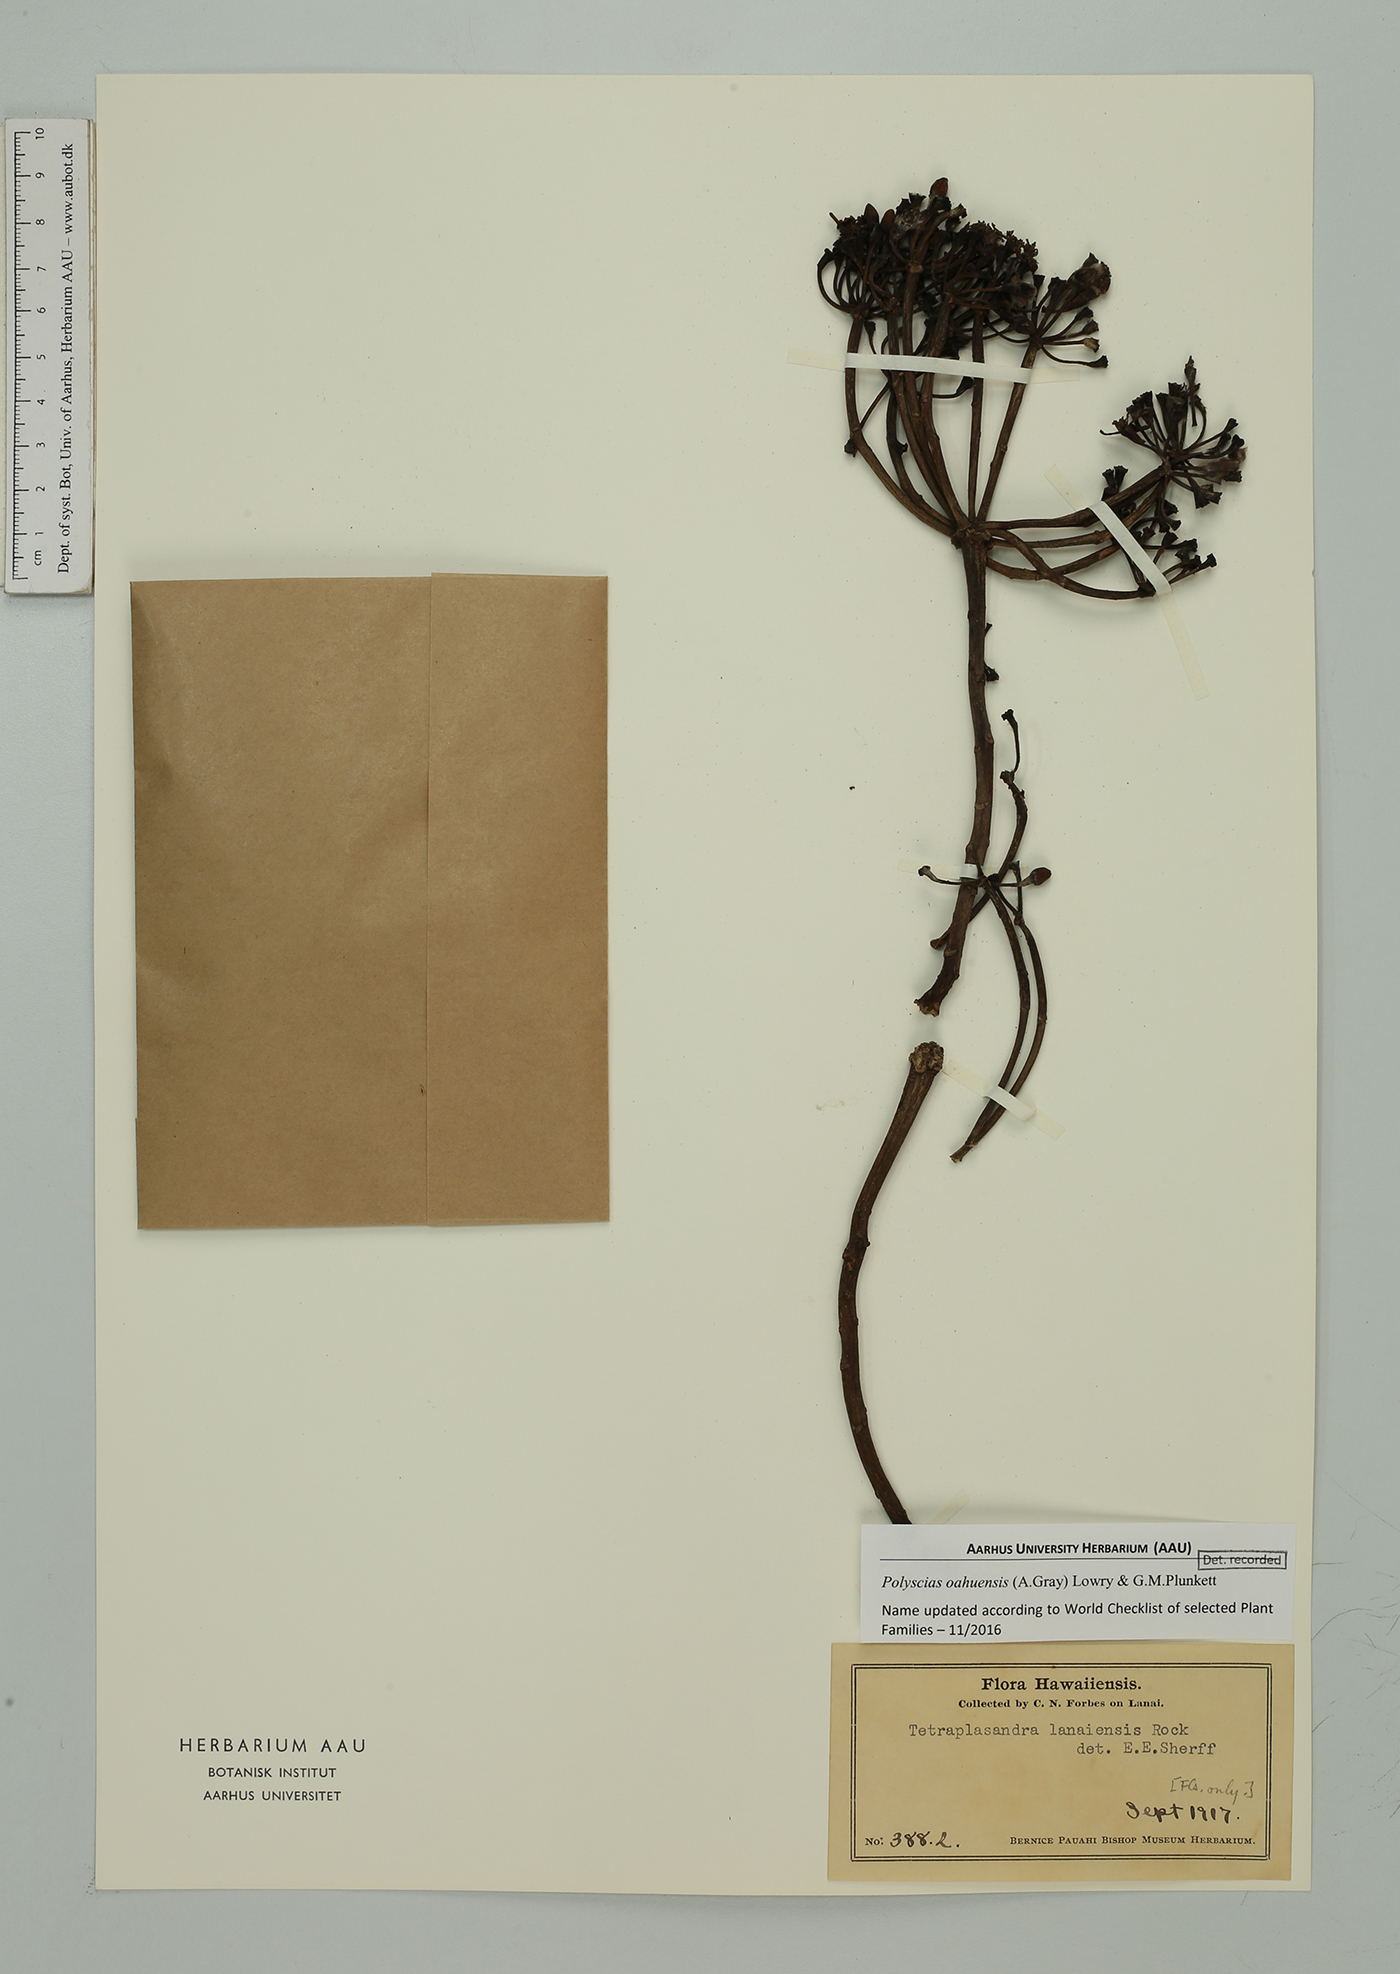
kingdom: Plantae
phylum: Tracheophyta
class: Magnoliopsida
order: Apiales
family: Araliaceae
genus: Polyscias
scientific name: Polyscias oahuensis
